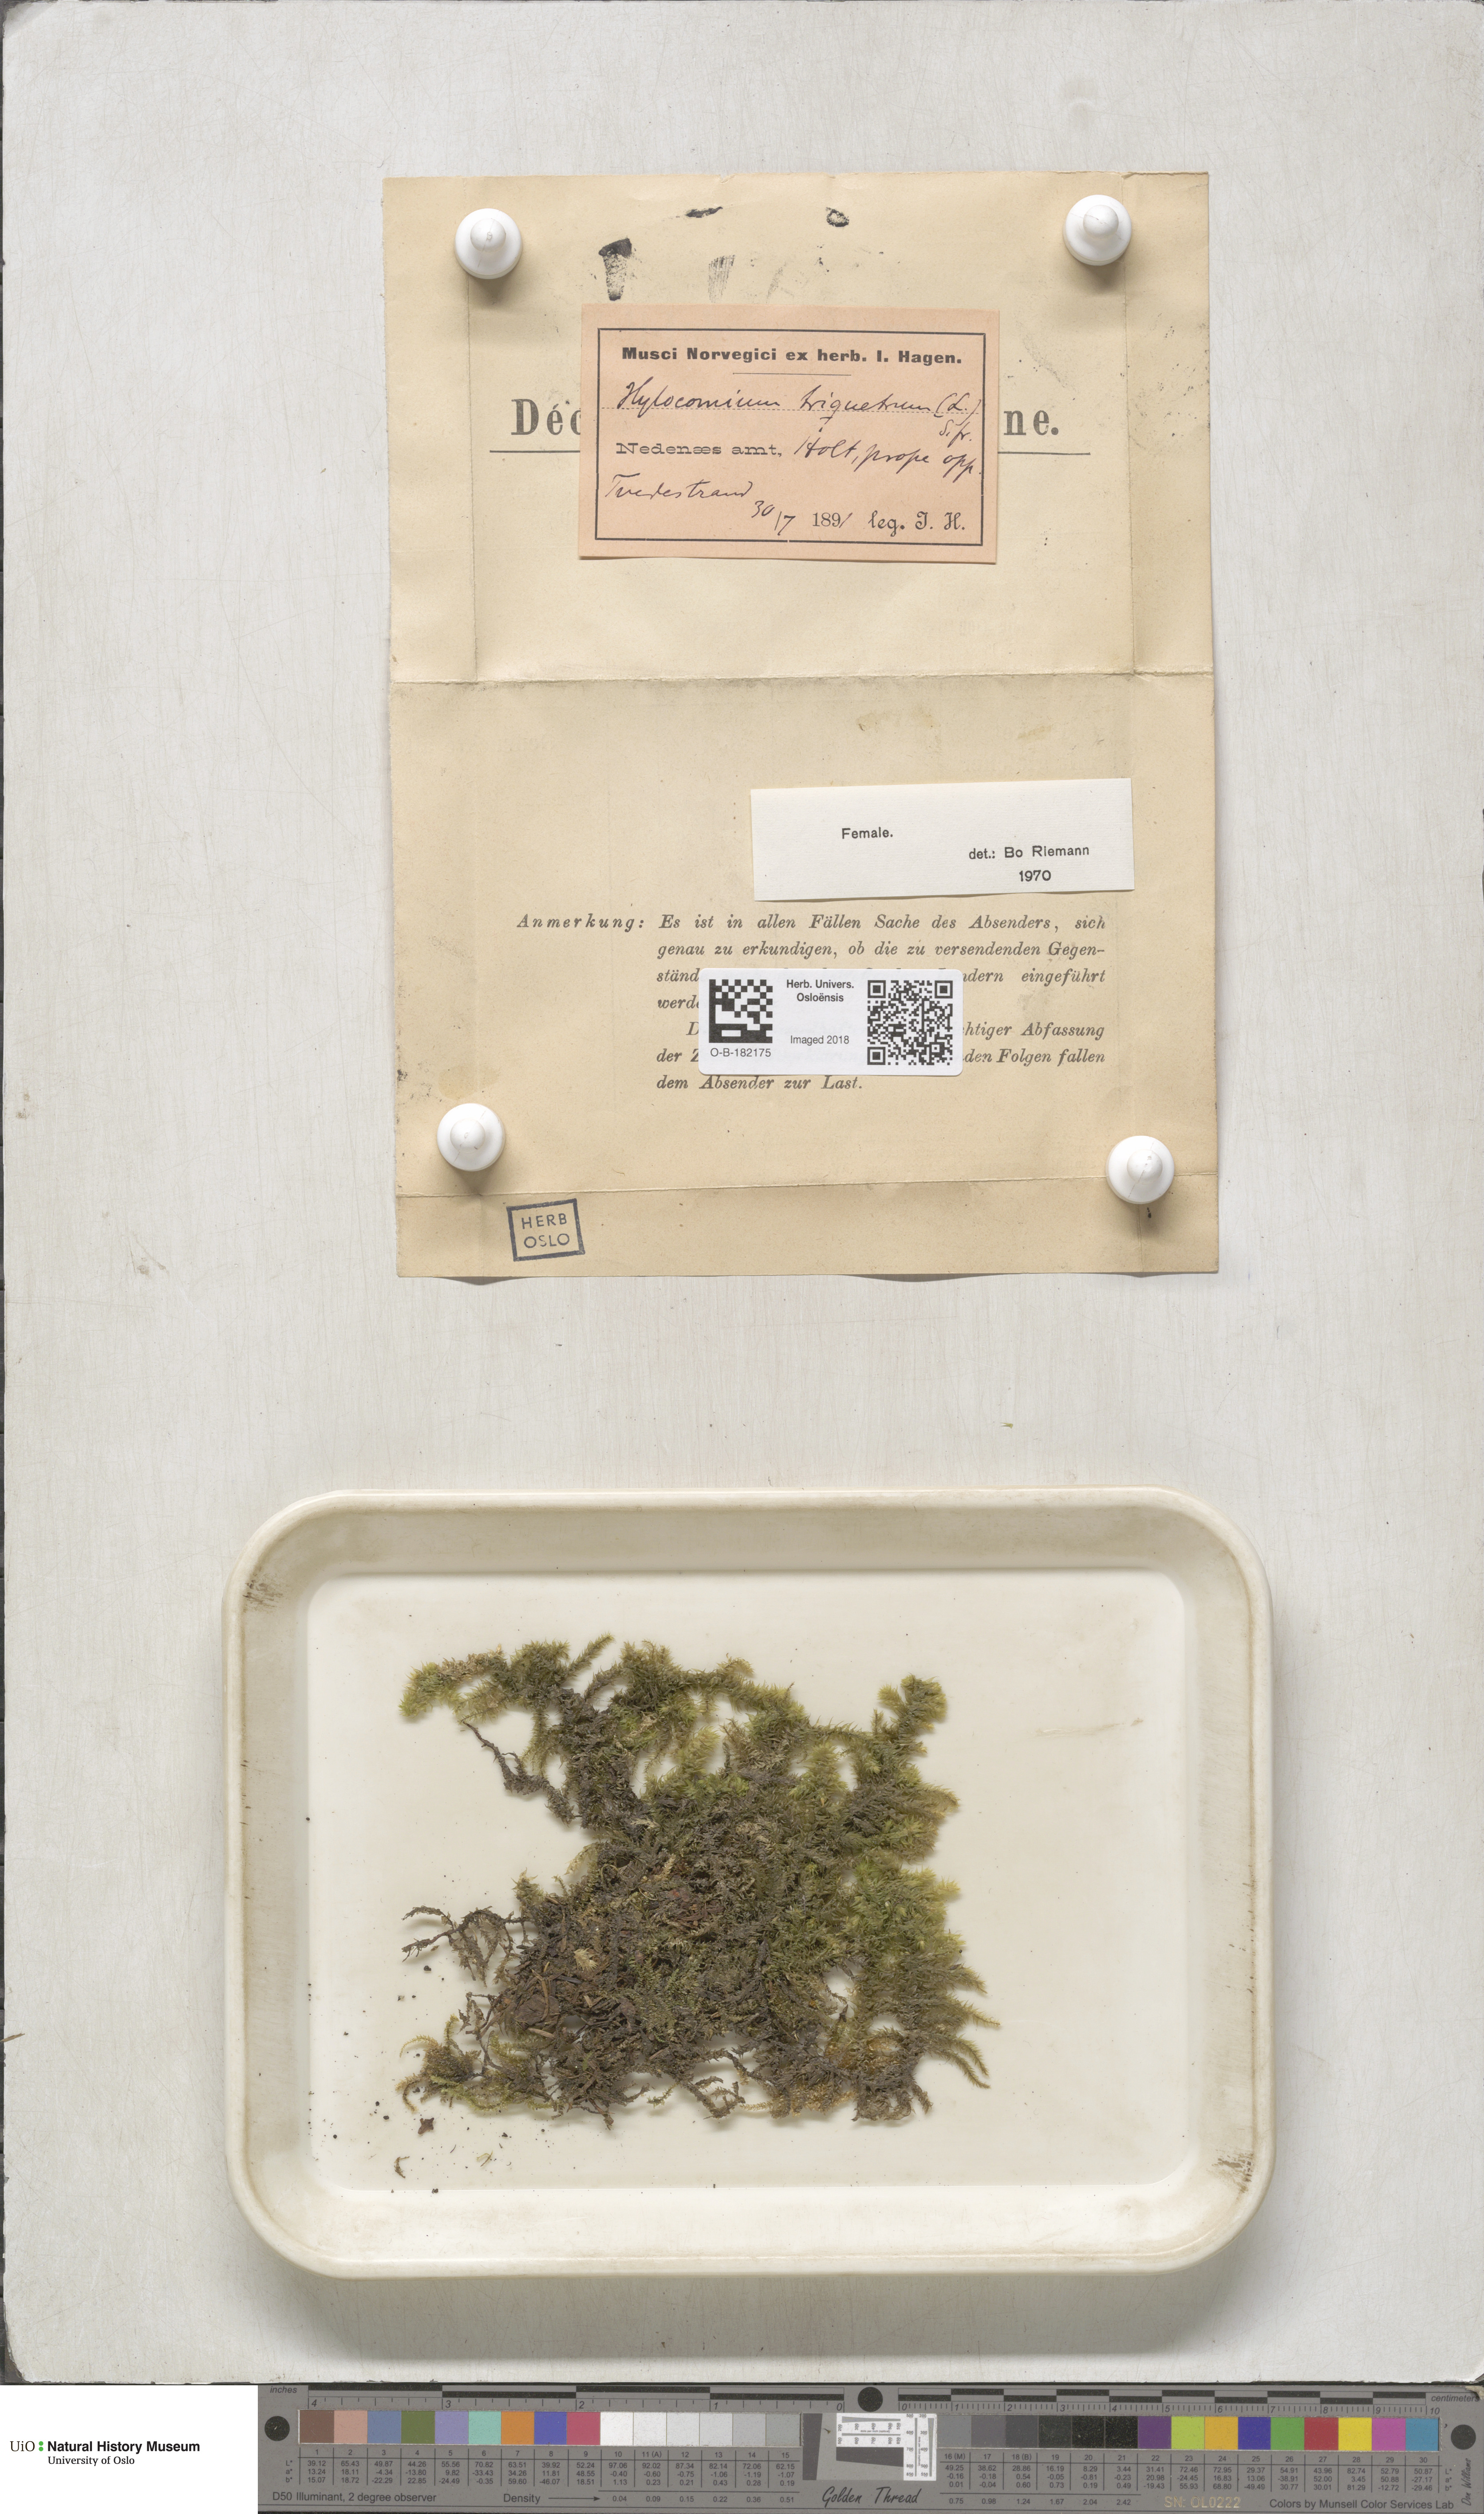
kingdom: Plantae
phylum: Bryophyta
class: Bryopsida
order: Hypnales
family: Hylocomiaceae
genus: Hylocomiadelphus
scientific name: Hylocomiadelphus triquetrus
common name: Rough goose neck moss
